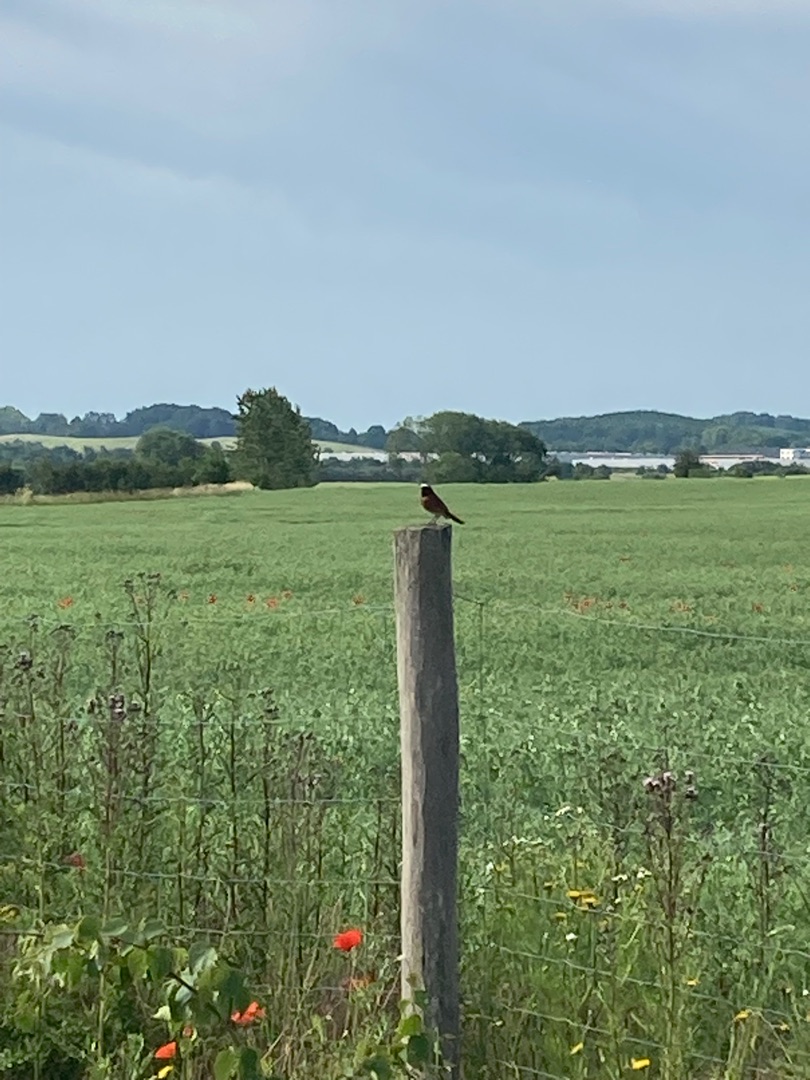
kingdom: Animalia
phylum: Chordata
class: Aves
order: Passeriformes
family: Muscicapidae
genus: Phoenicurus
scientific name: Phoenicurus phoenicurus
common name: Rødstjert
